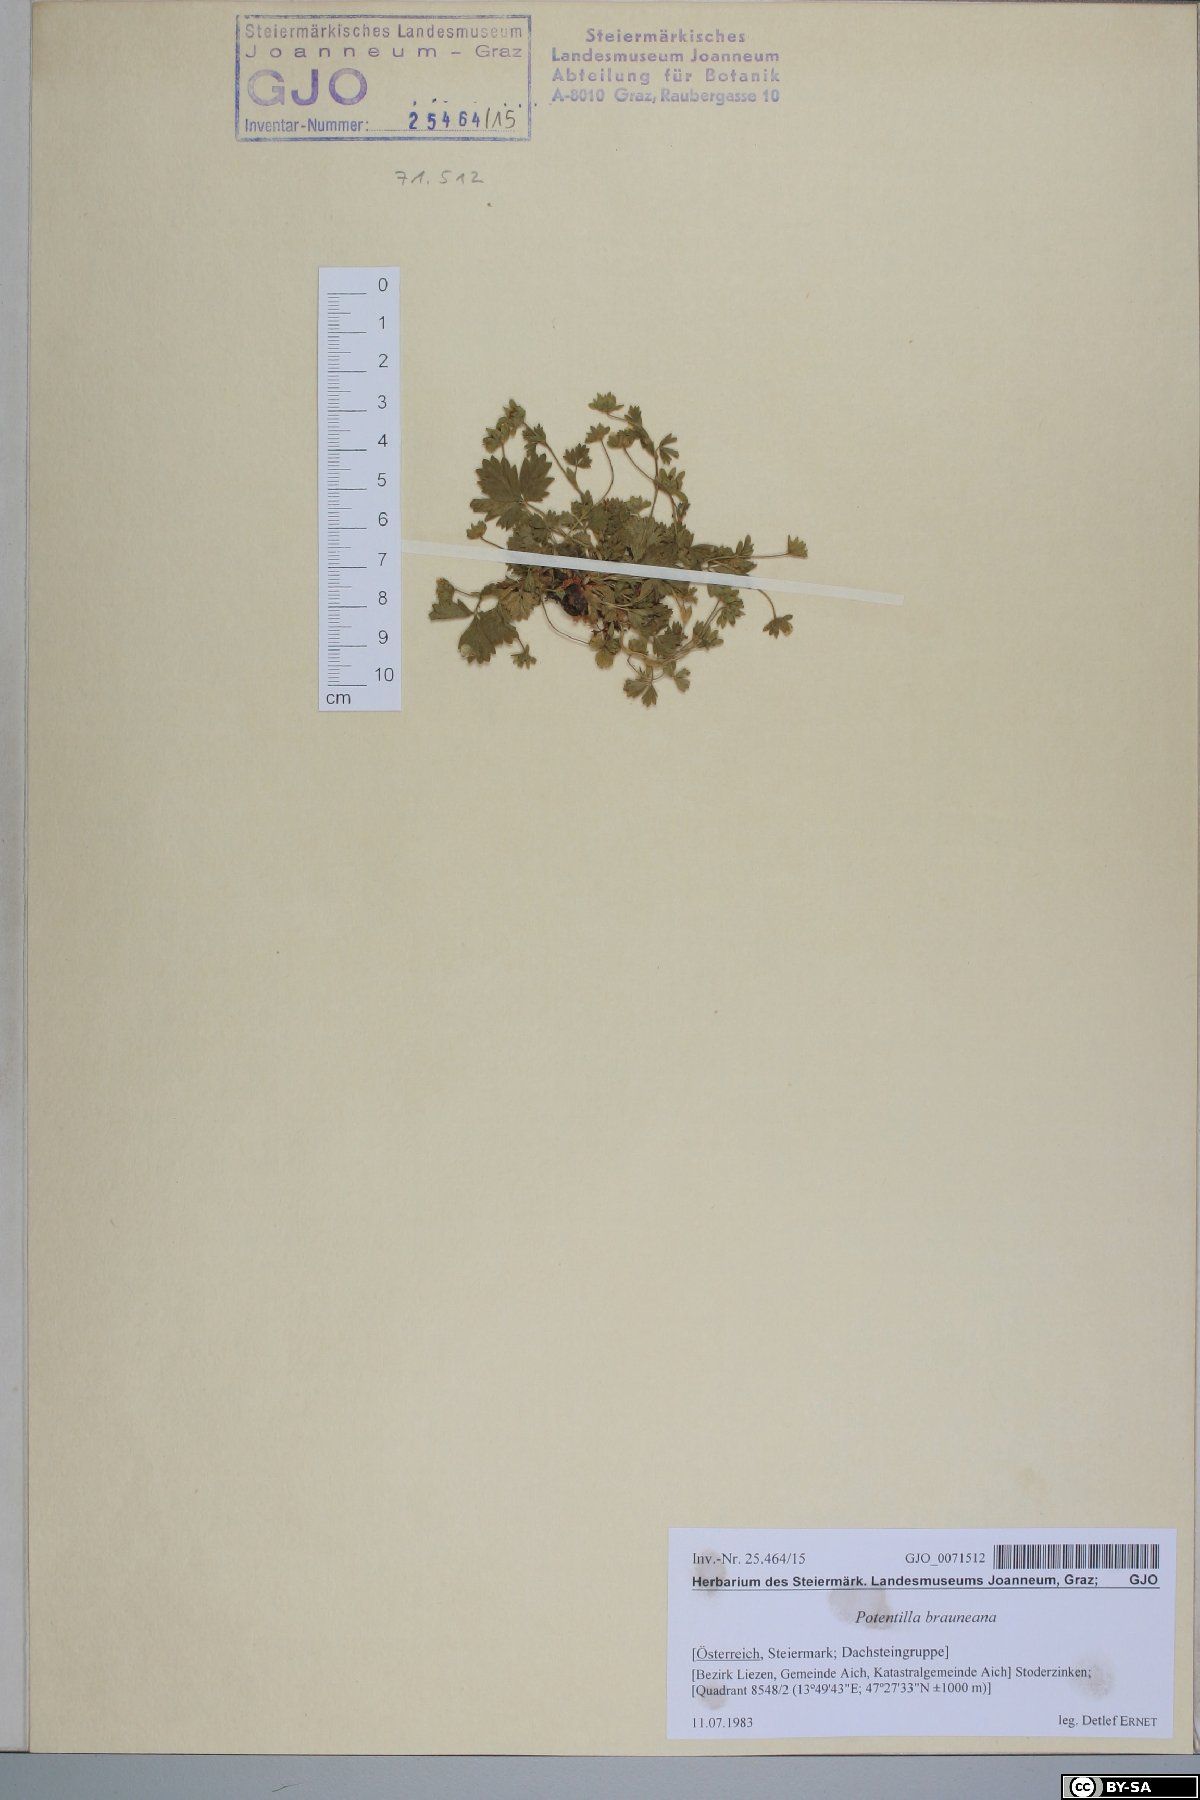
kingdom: Plantae
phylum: Tracheophyta
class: Magnoliopsida
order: Rosales
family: Rosaceae
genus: Potentilla
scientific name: Potentilla brauneana
